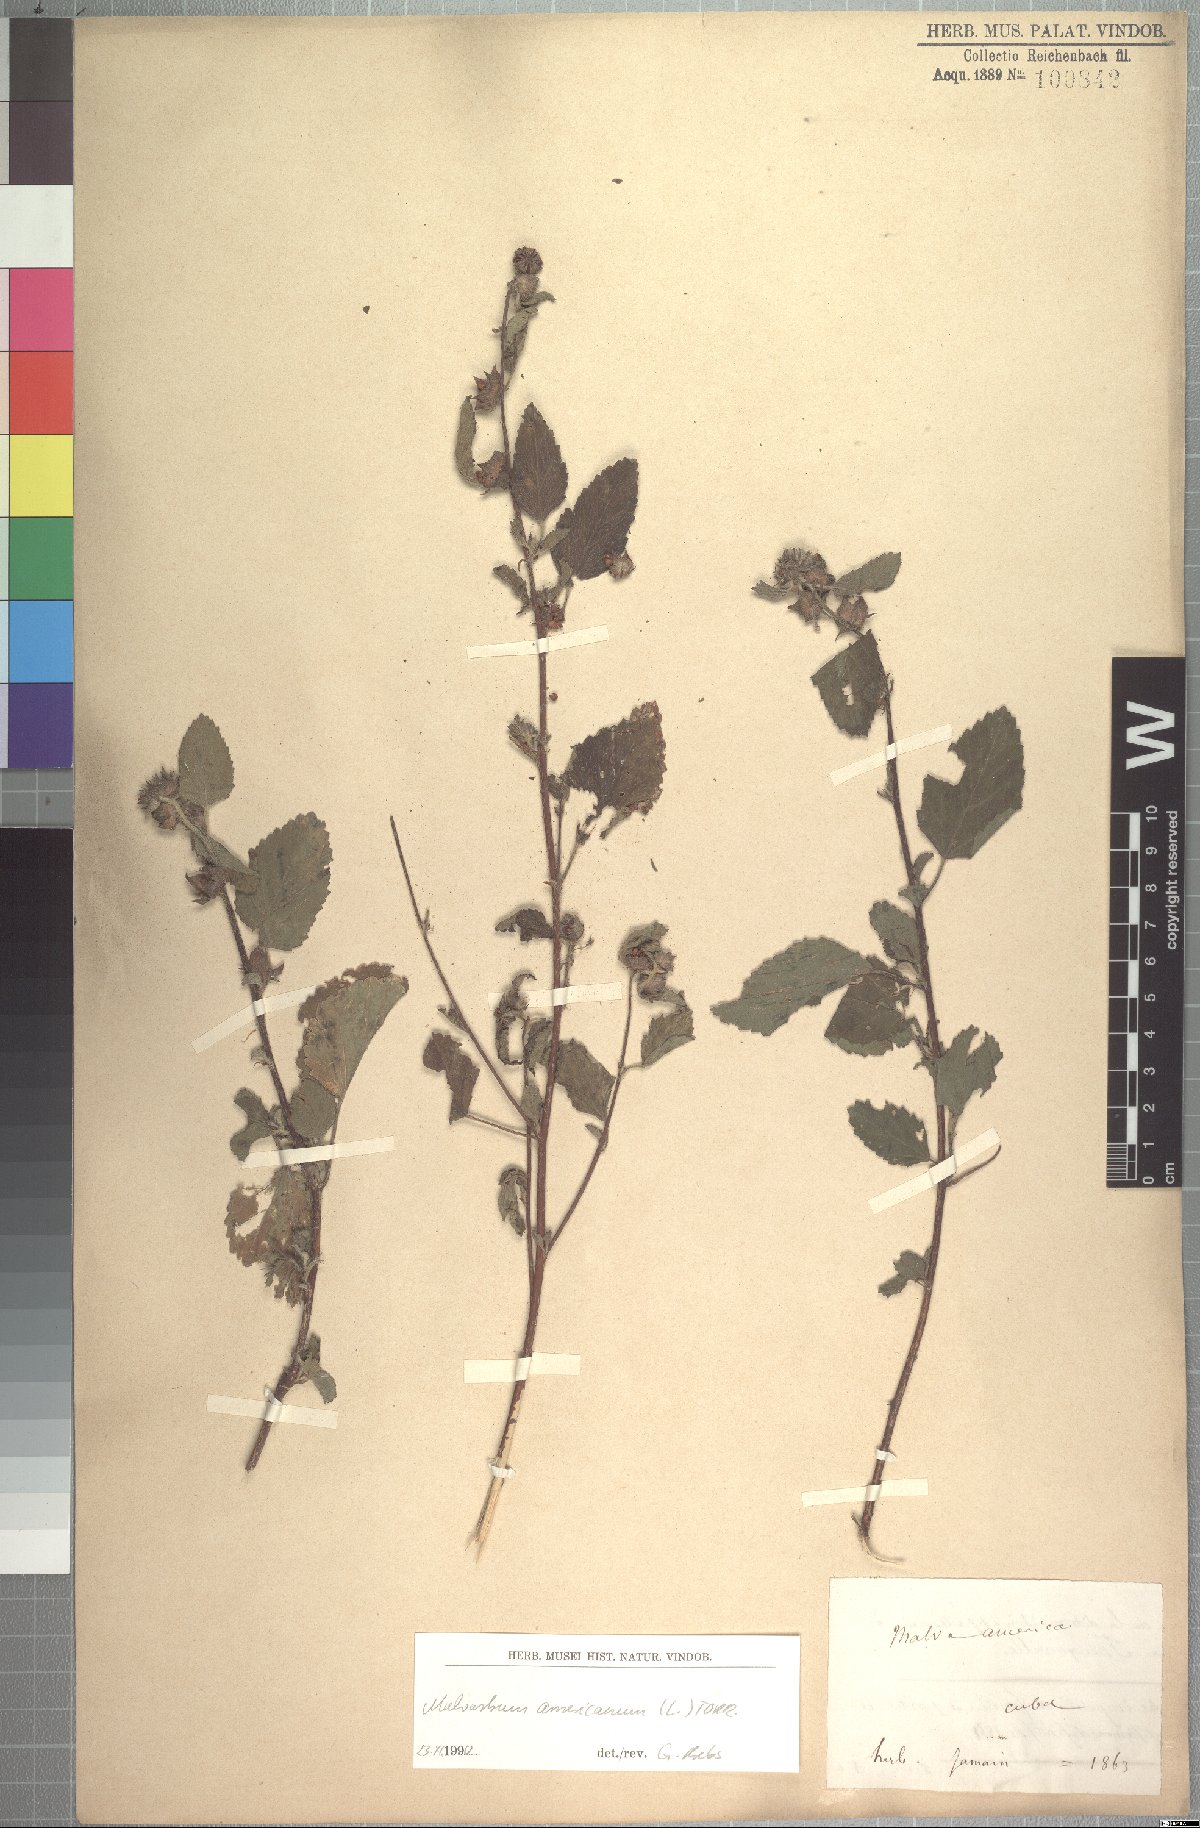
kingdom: Plantae
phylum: Tracheophyta
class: Magnoliopsida
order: Malvales
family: Malvaceae
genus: Malvastrum
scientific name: Malvastrum americanum
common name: Spiked malvastrum
